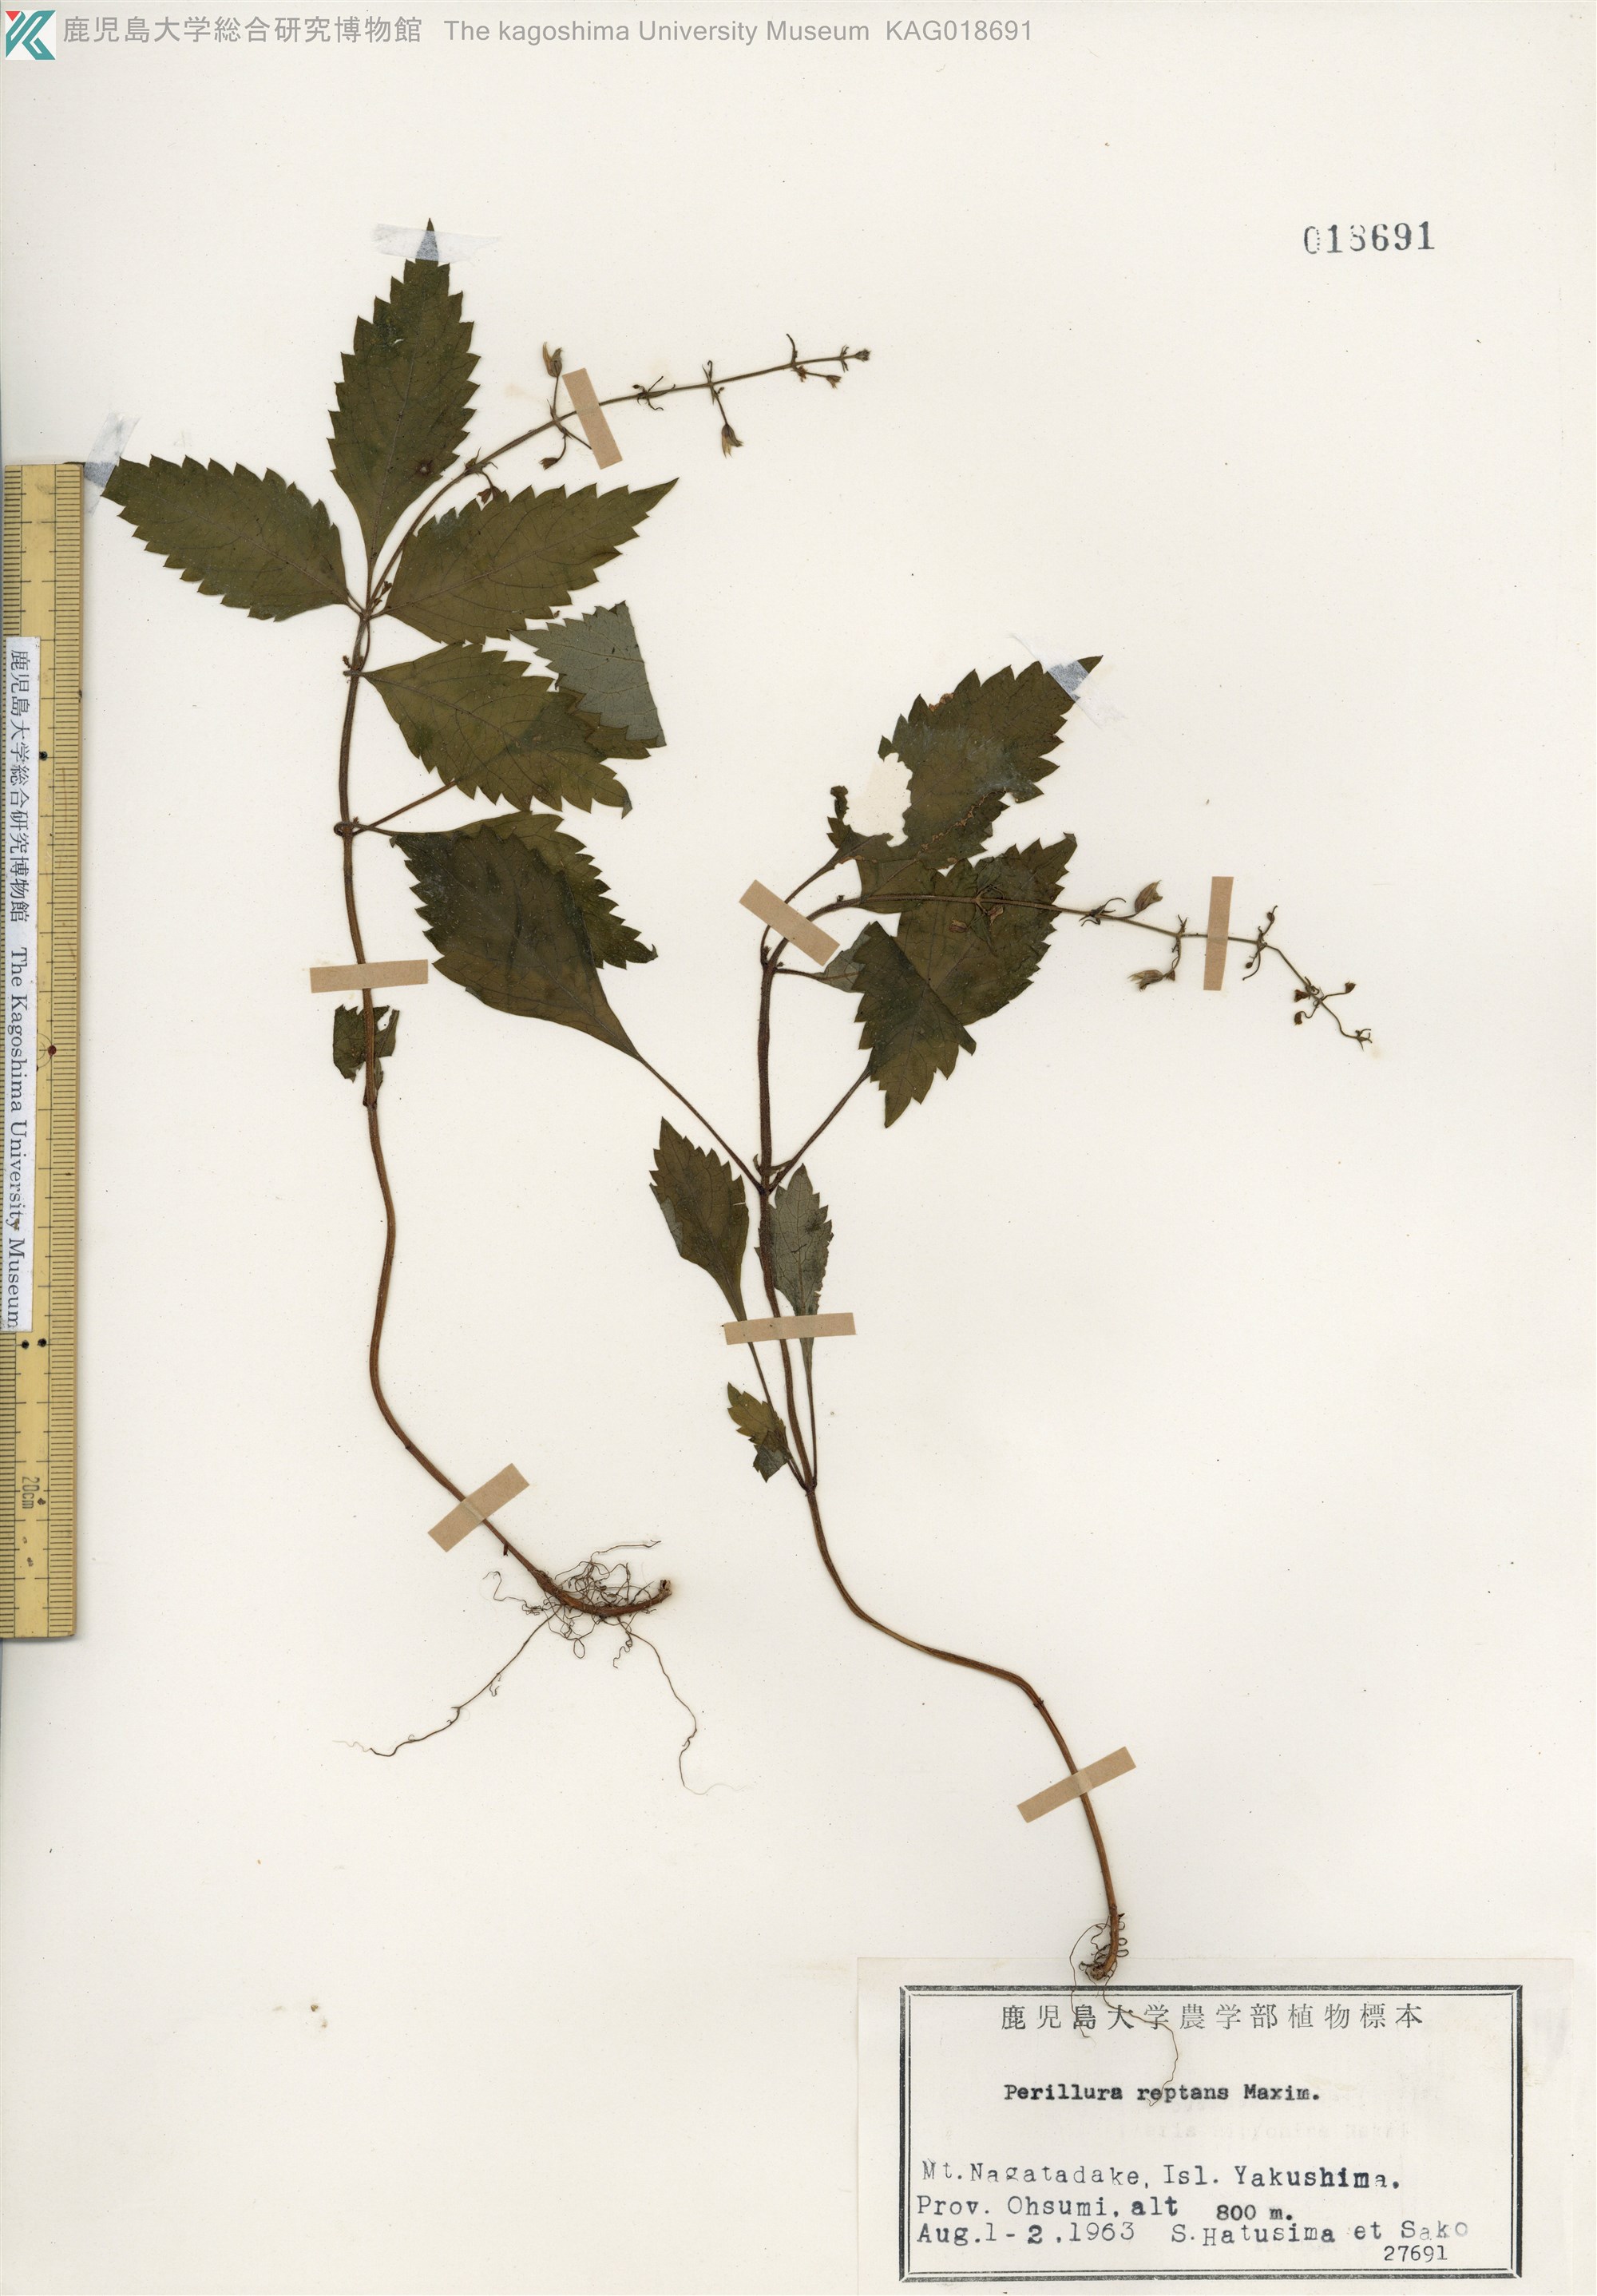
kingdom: Plantae
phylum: Tracheophyta
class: Magnoliopsida
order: Lamiales
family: Lamiaceae
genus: Perillula
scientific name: Perillula reptans
